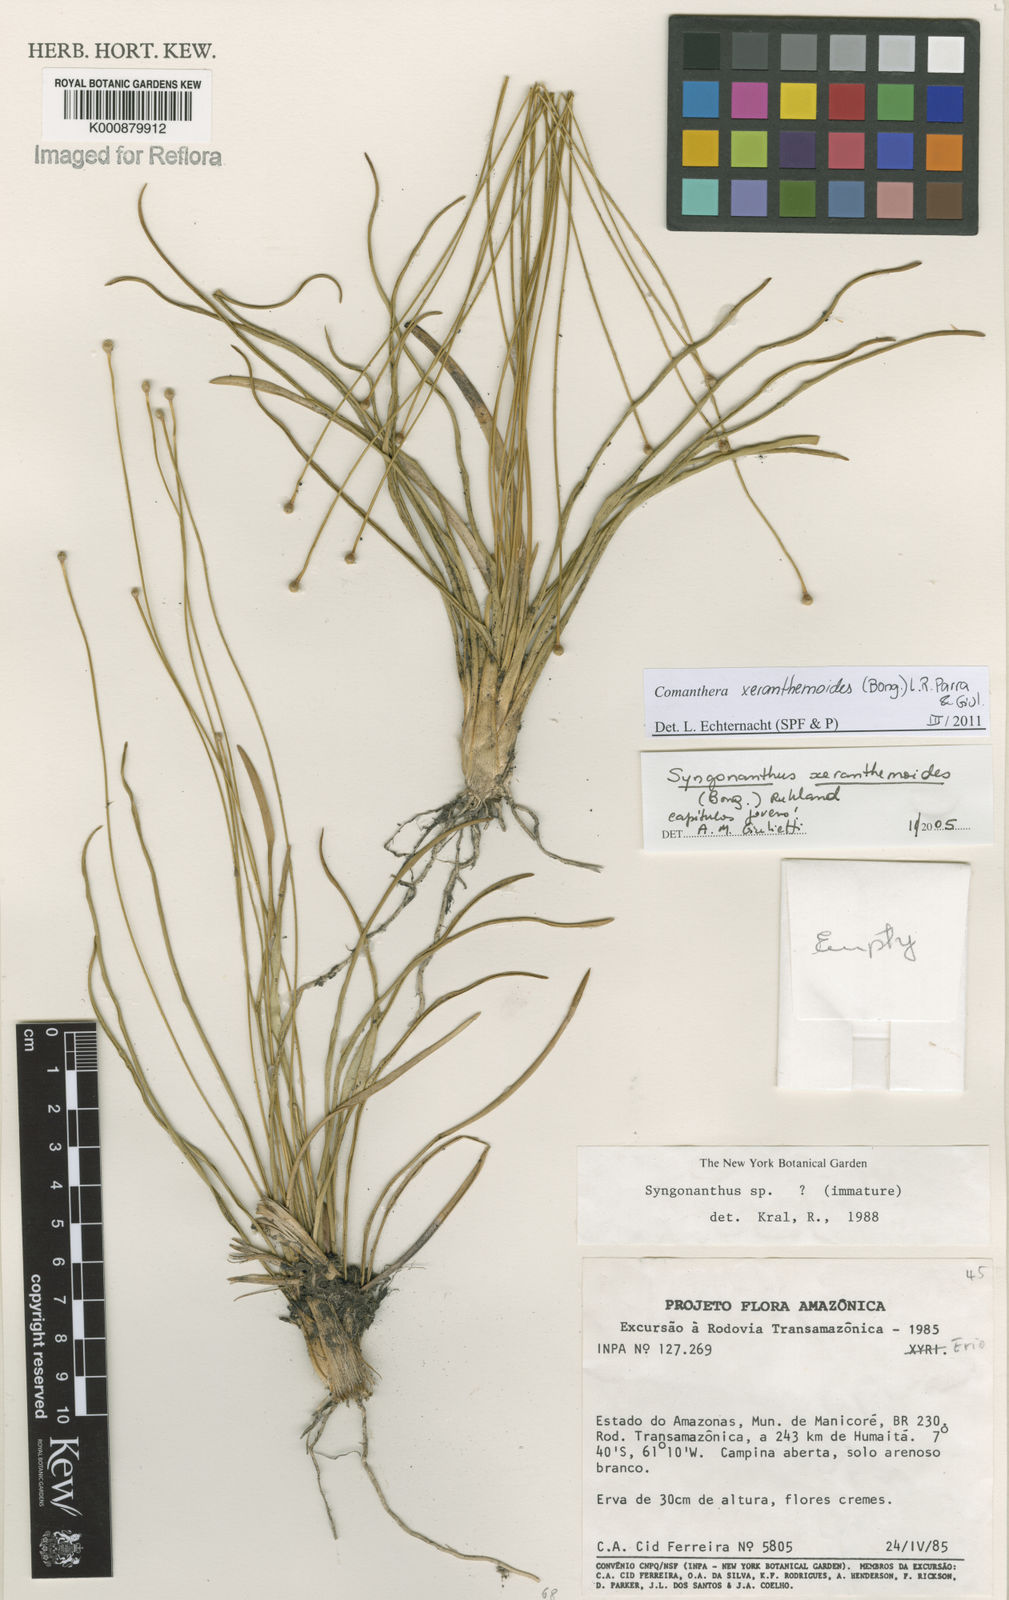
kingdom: Plantae
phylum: Tracheophyta
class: Liliopsida
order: Poales
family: Eriocaulaceae
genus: Comanthera
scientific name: Comanthera xeranthemoides
